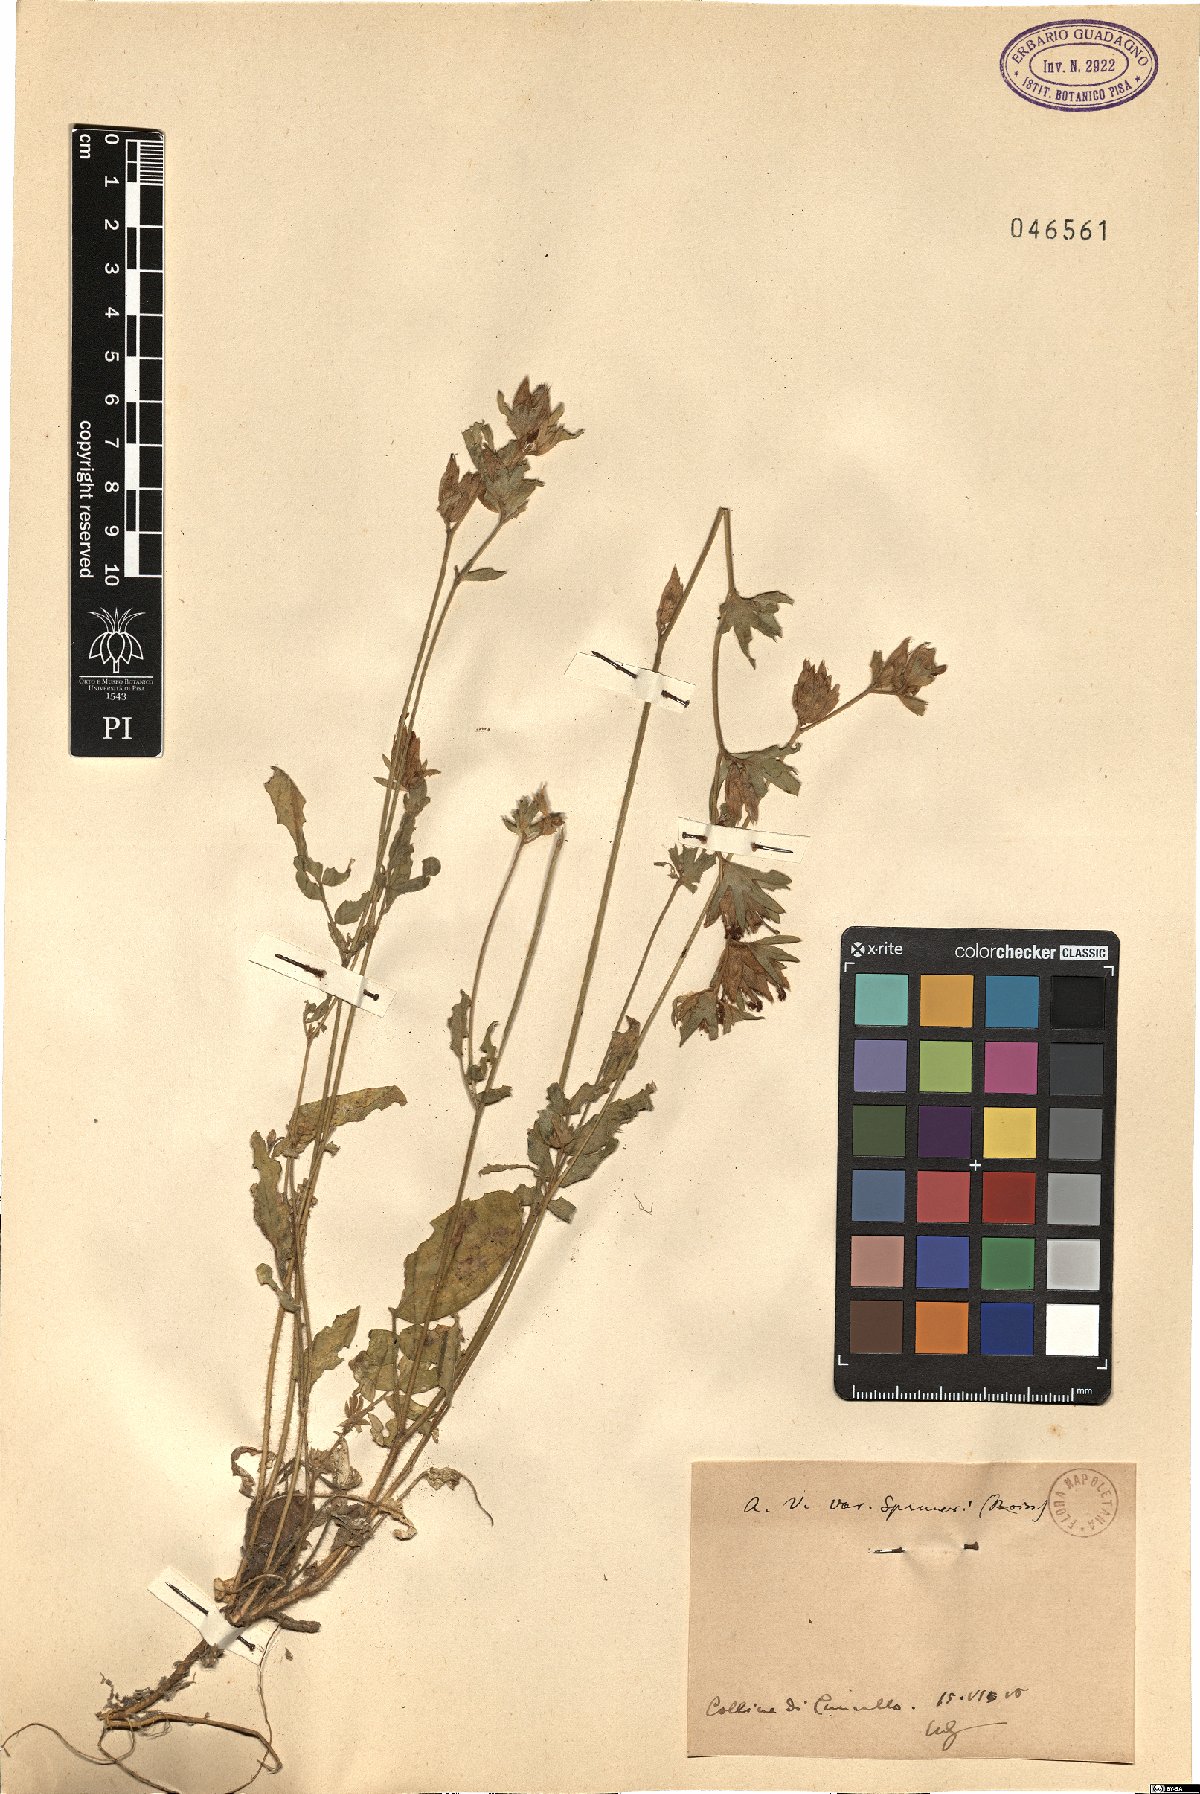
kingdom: Plantae
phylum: Tracheophyta
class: Magnoliopsida
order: Fabales
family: Fabaceae
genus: Anthyllis
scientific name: Anthyllis vulneraria
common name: Kidney vetch
